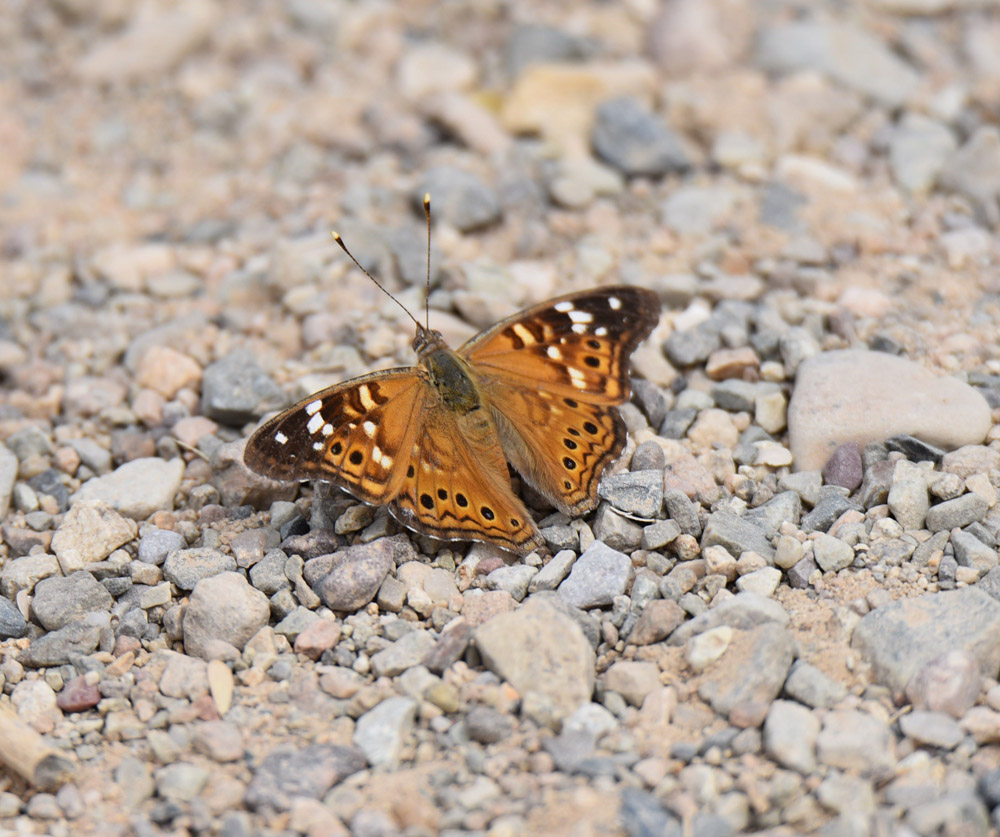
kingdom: Animalia
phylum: Arthropoda
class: Insecta
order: Lepidoptera
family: Nymphalidae
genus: Asterocampa
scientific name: Asterocampa leilia
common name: Empress leilia
